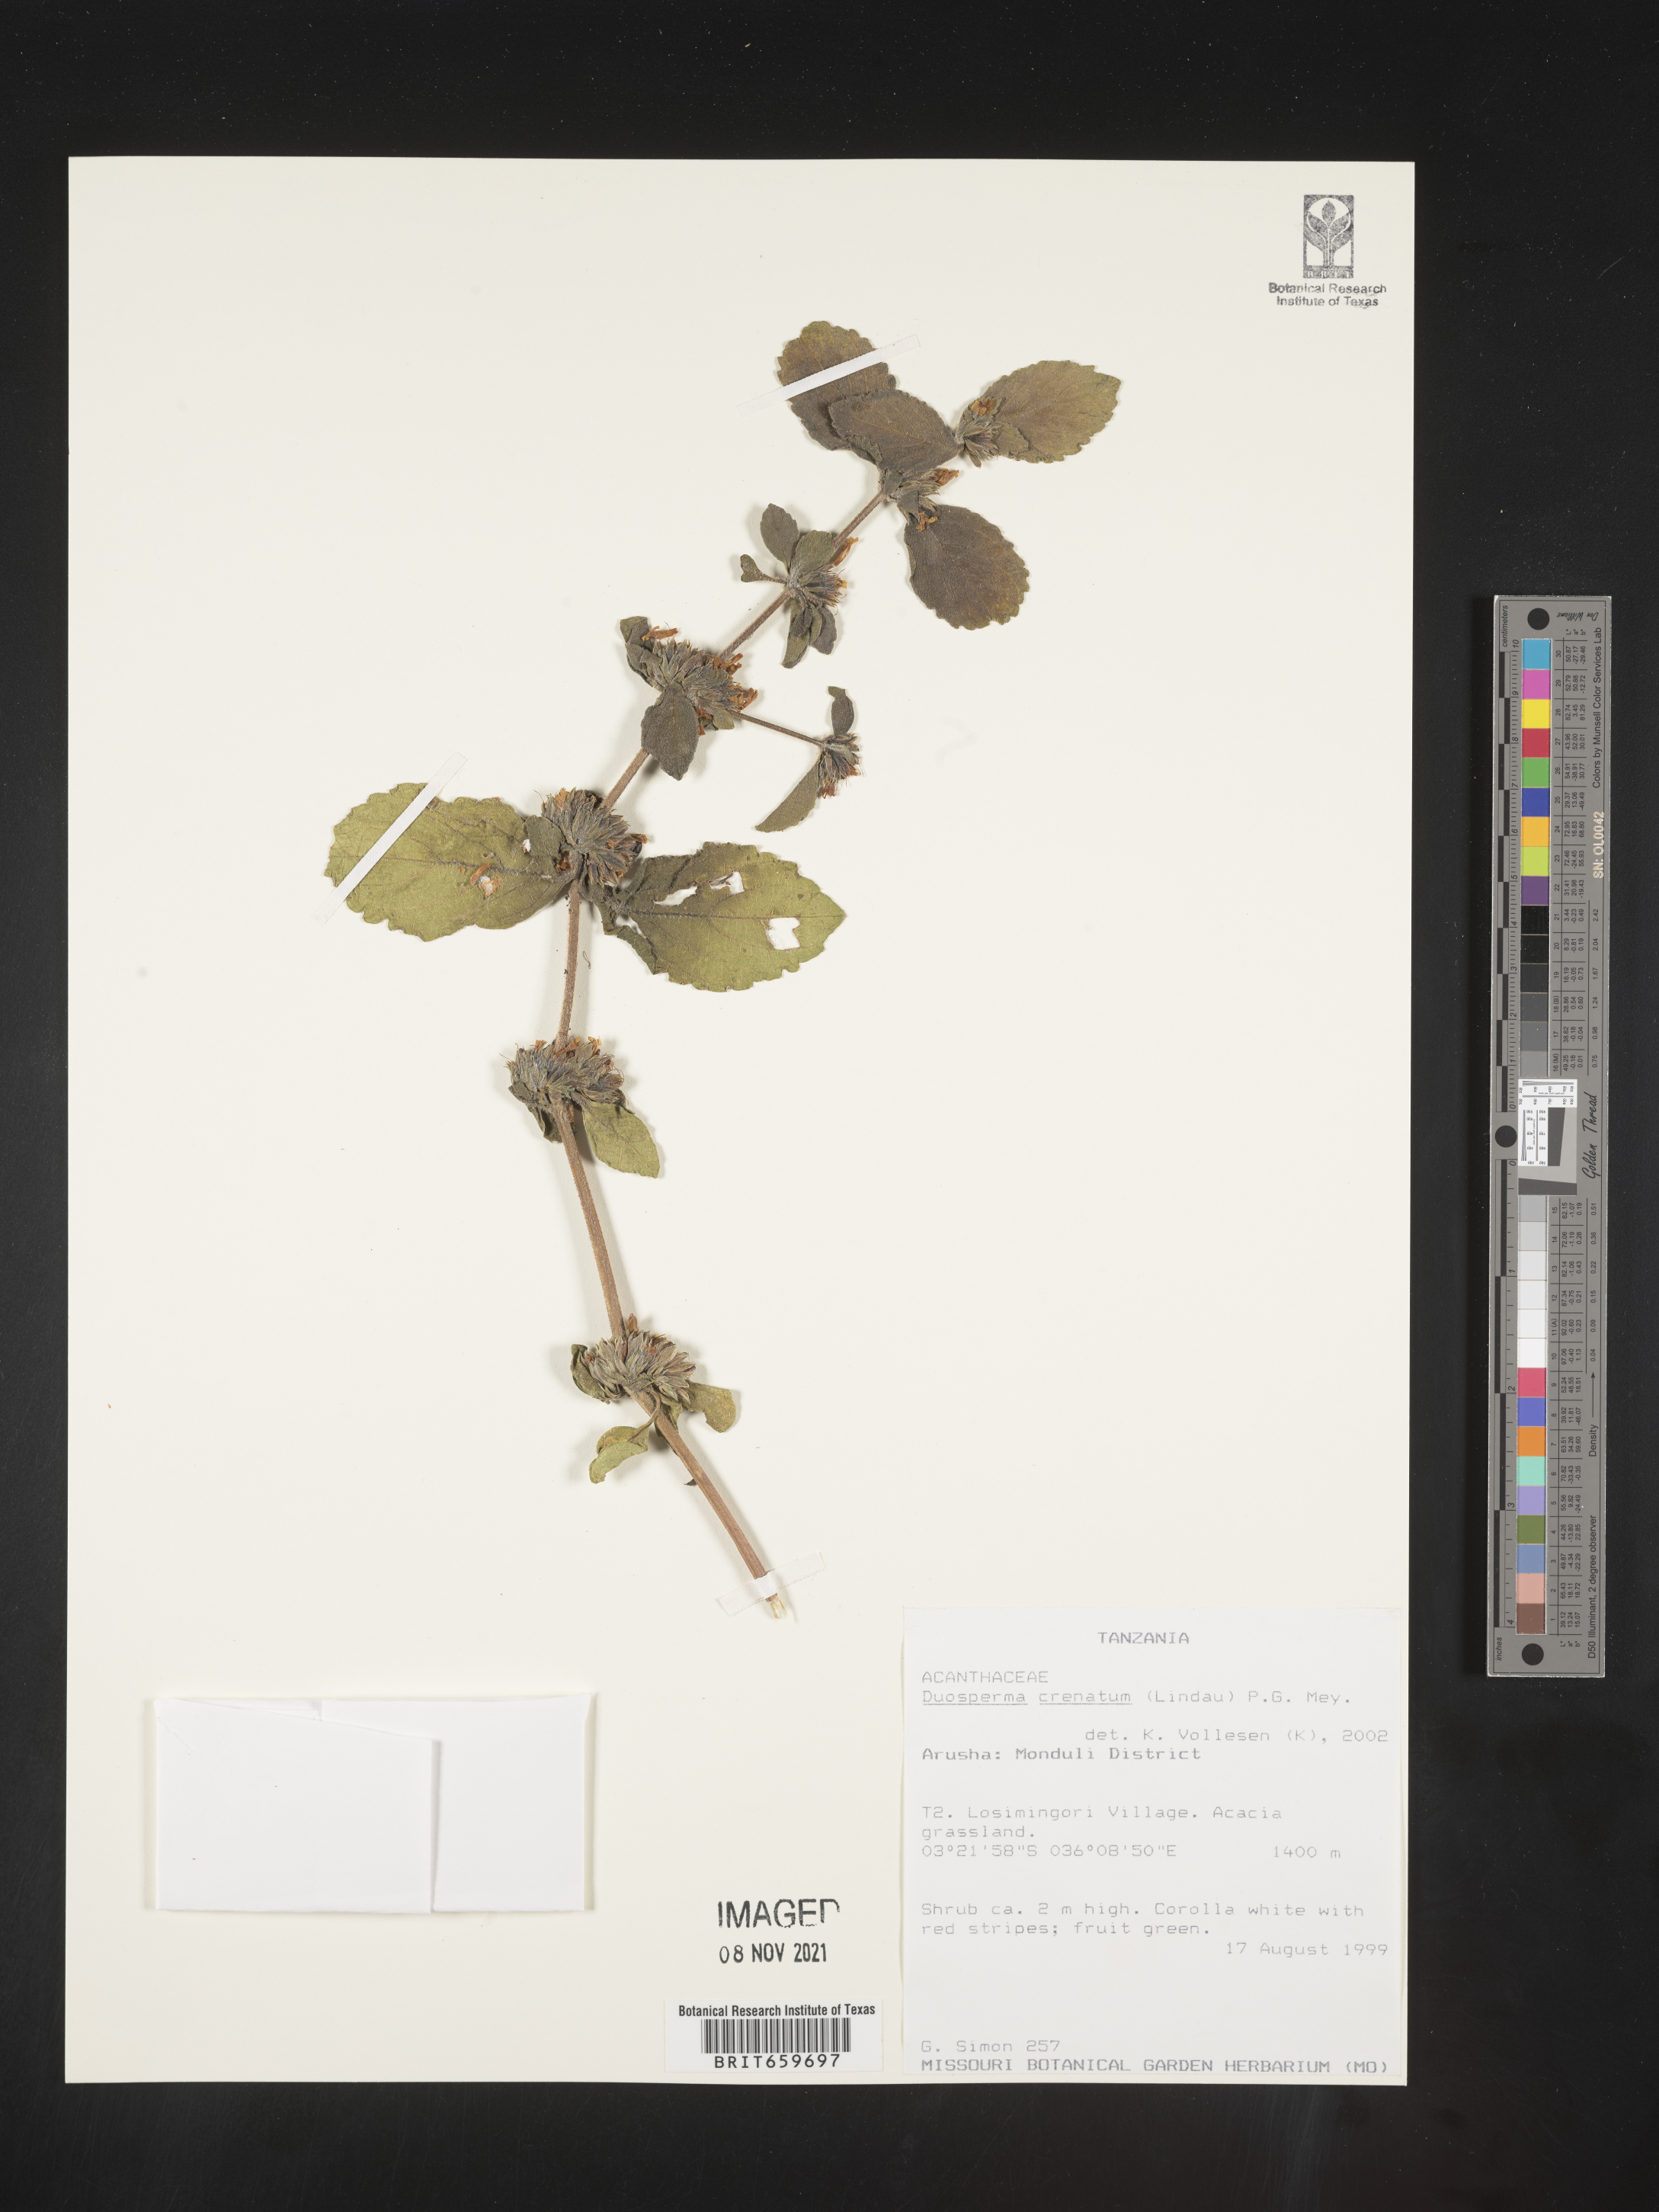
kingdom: Plantae
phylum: Tracheophyta
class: Magnoliopsida
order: Lamiales
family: Acanthaceae
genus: Duosperma
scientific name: Duosperma crenatum
